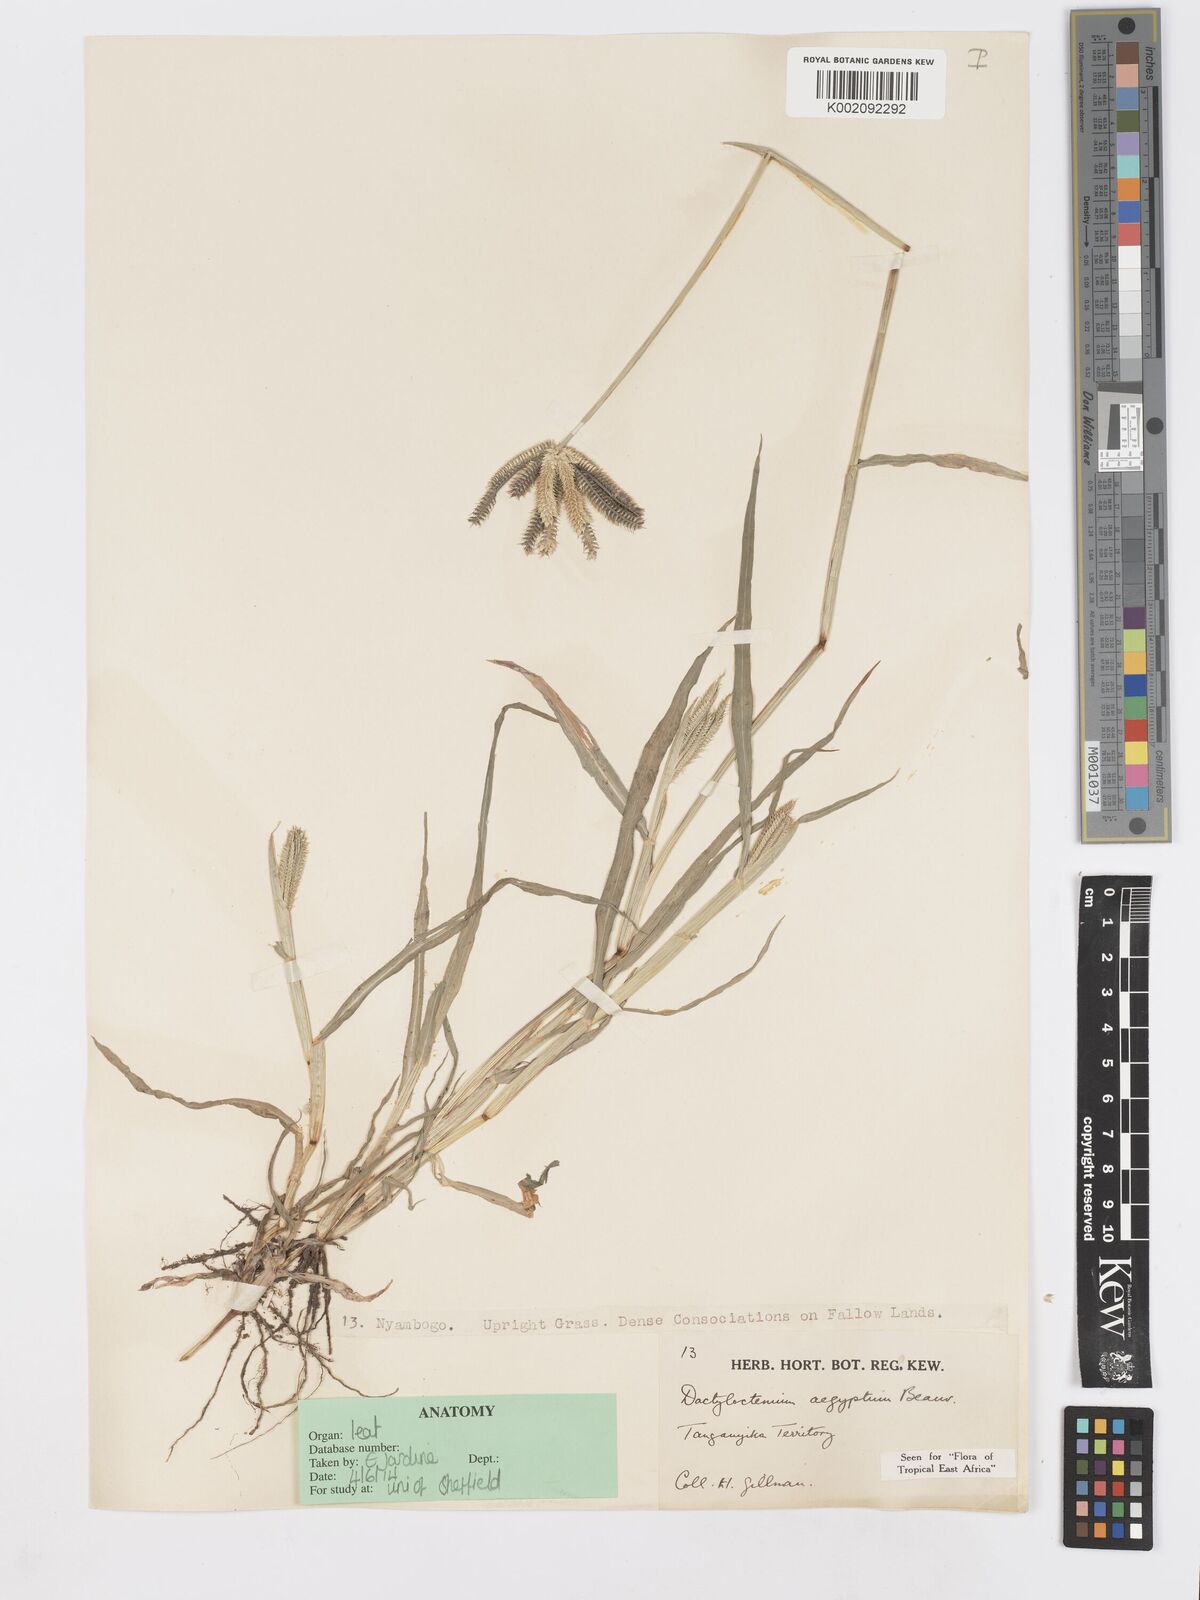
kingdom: Plantae
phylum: Tracheophyta
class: Liliopsida
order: Poales
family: Poaceae
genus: Dactyloctenium
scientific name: Dactyloctenium aegyptium
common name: Egyptian grass
